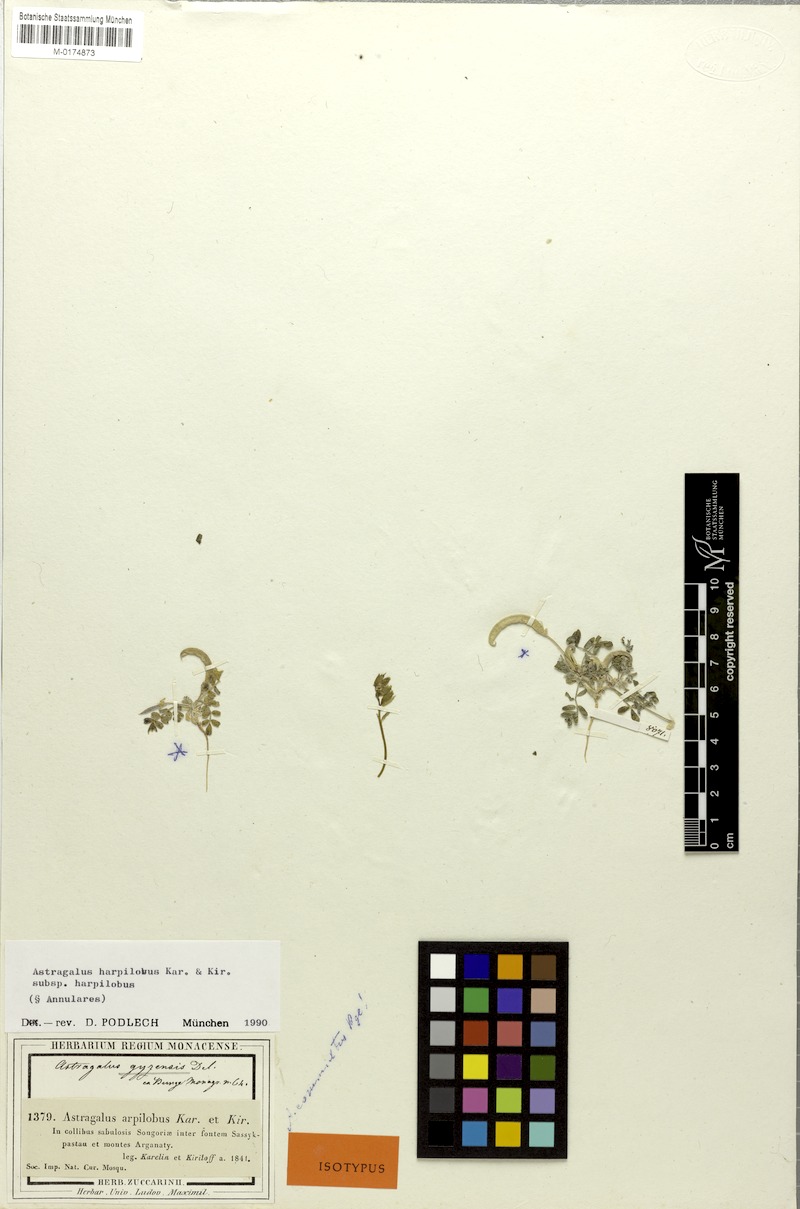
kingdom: Plantae
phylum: Tracheophyta
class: Magnoliopsida
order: Fabales
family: Fabaceae
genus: Astragalus
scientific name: Astragalus arpilobus
